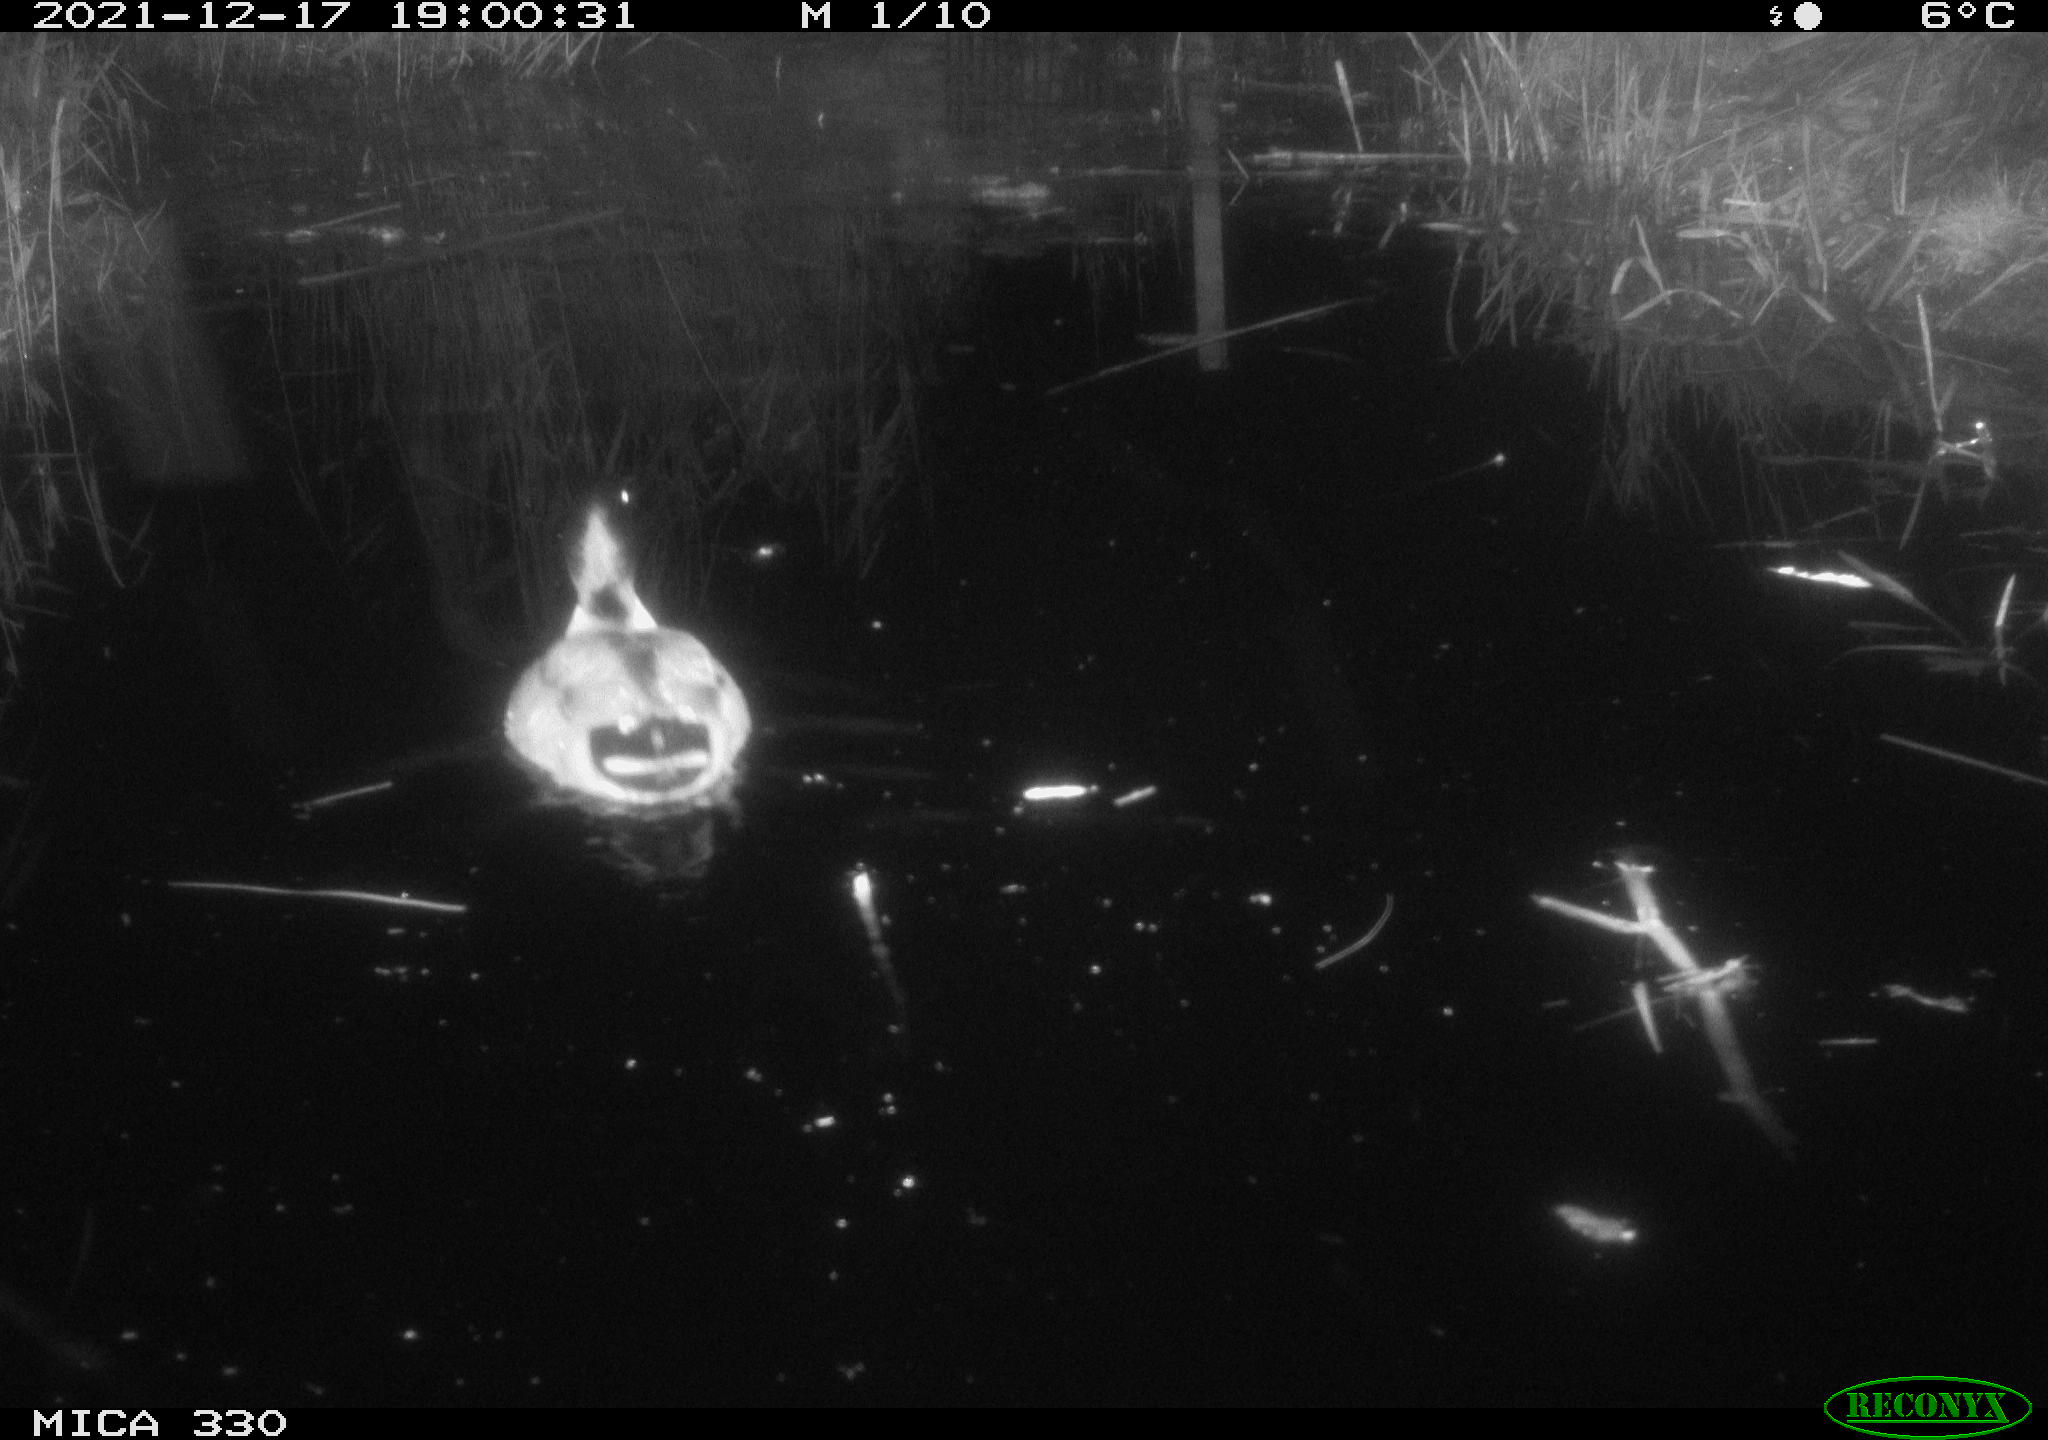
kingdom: Animalia
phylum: Chordata
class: Aves
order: Anseriformes
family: Anatidae
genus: Anas
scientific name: Anas platyrhynchos
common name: Mallard
